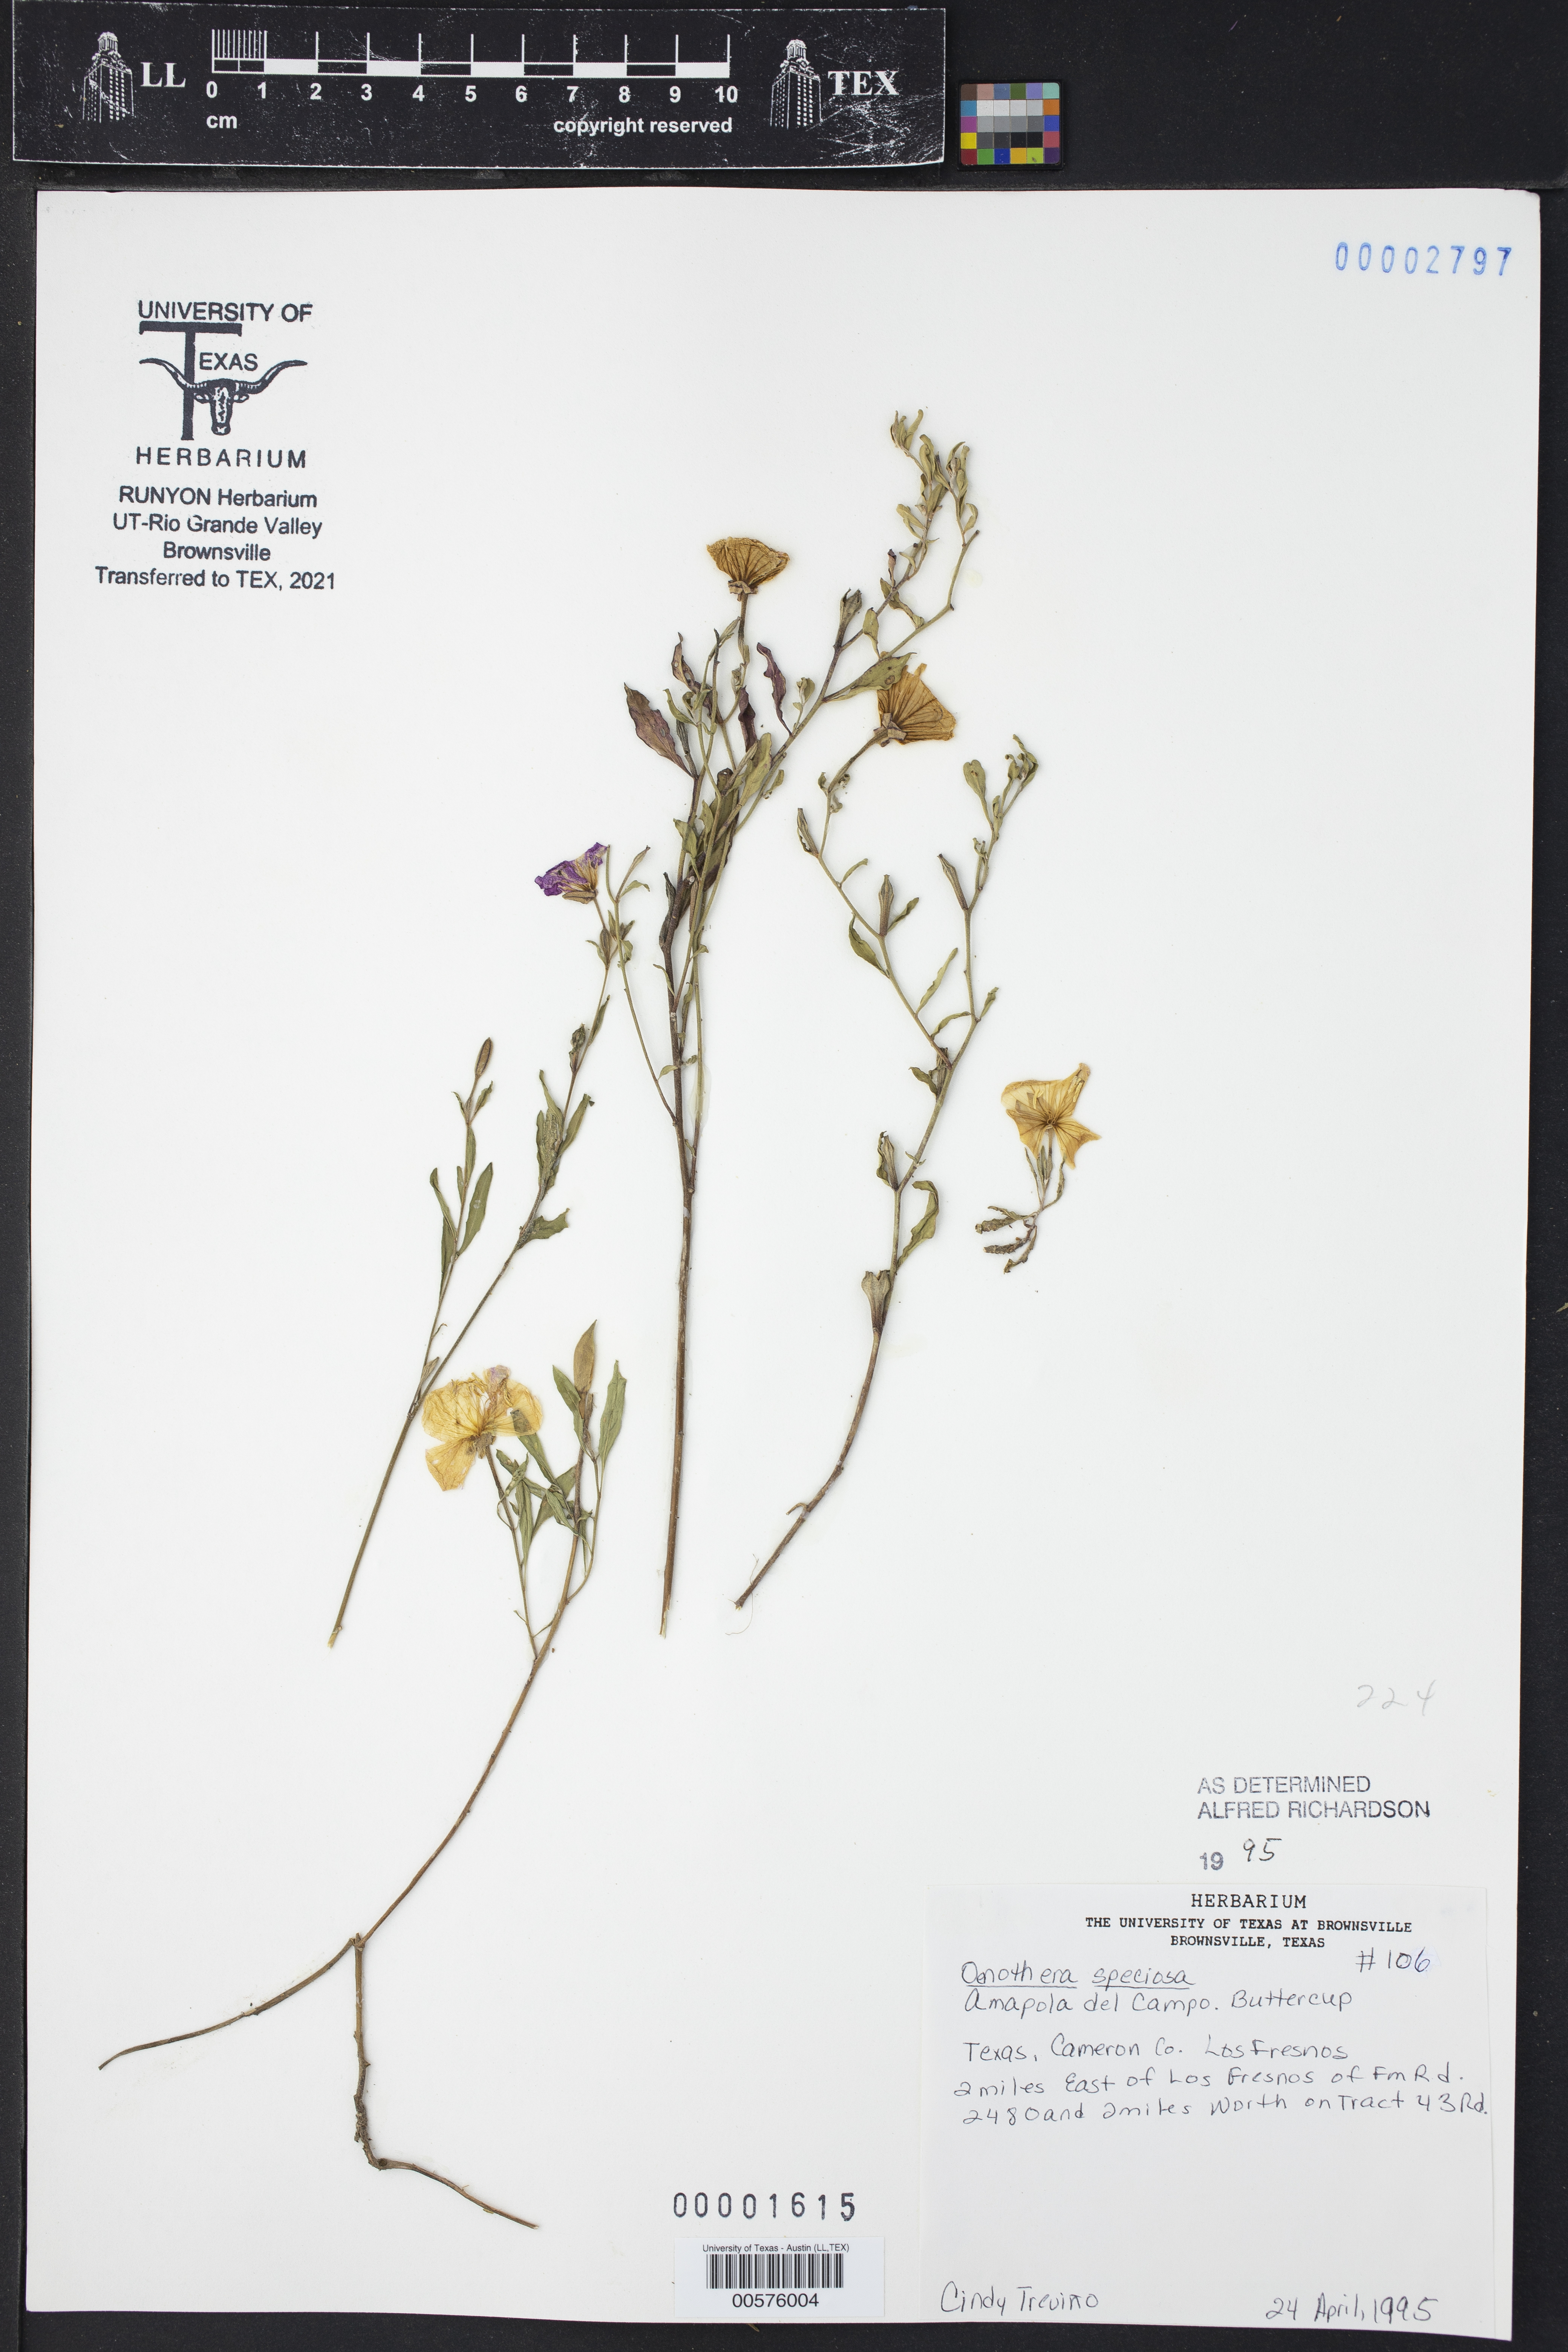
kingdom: Plantae
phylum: Tracheophyta
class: Magnoliopsida
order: Myrtales
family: Onagraceae
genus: Oenothera
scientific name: Oenothera speciosa
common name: White evening-primrose
